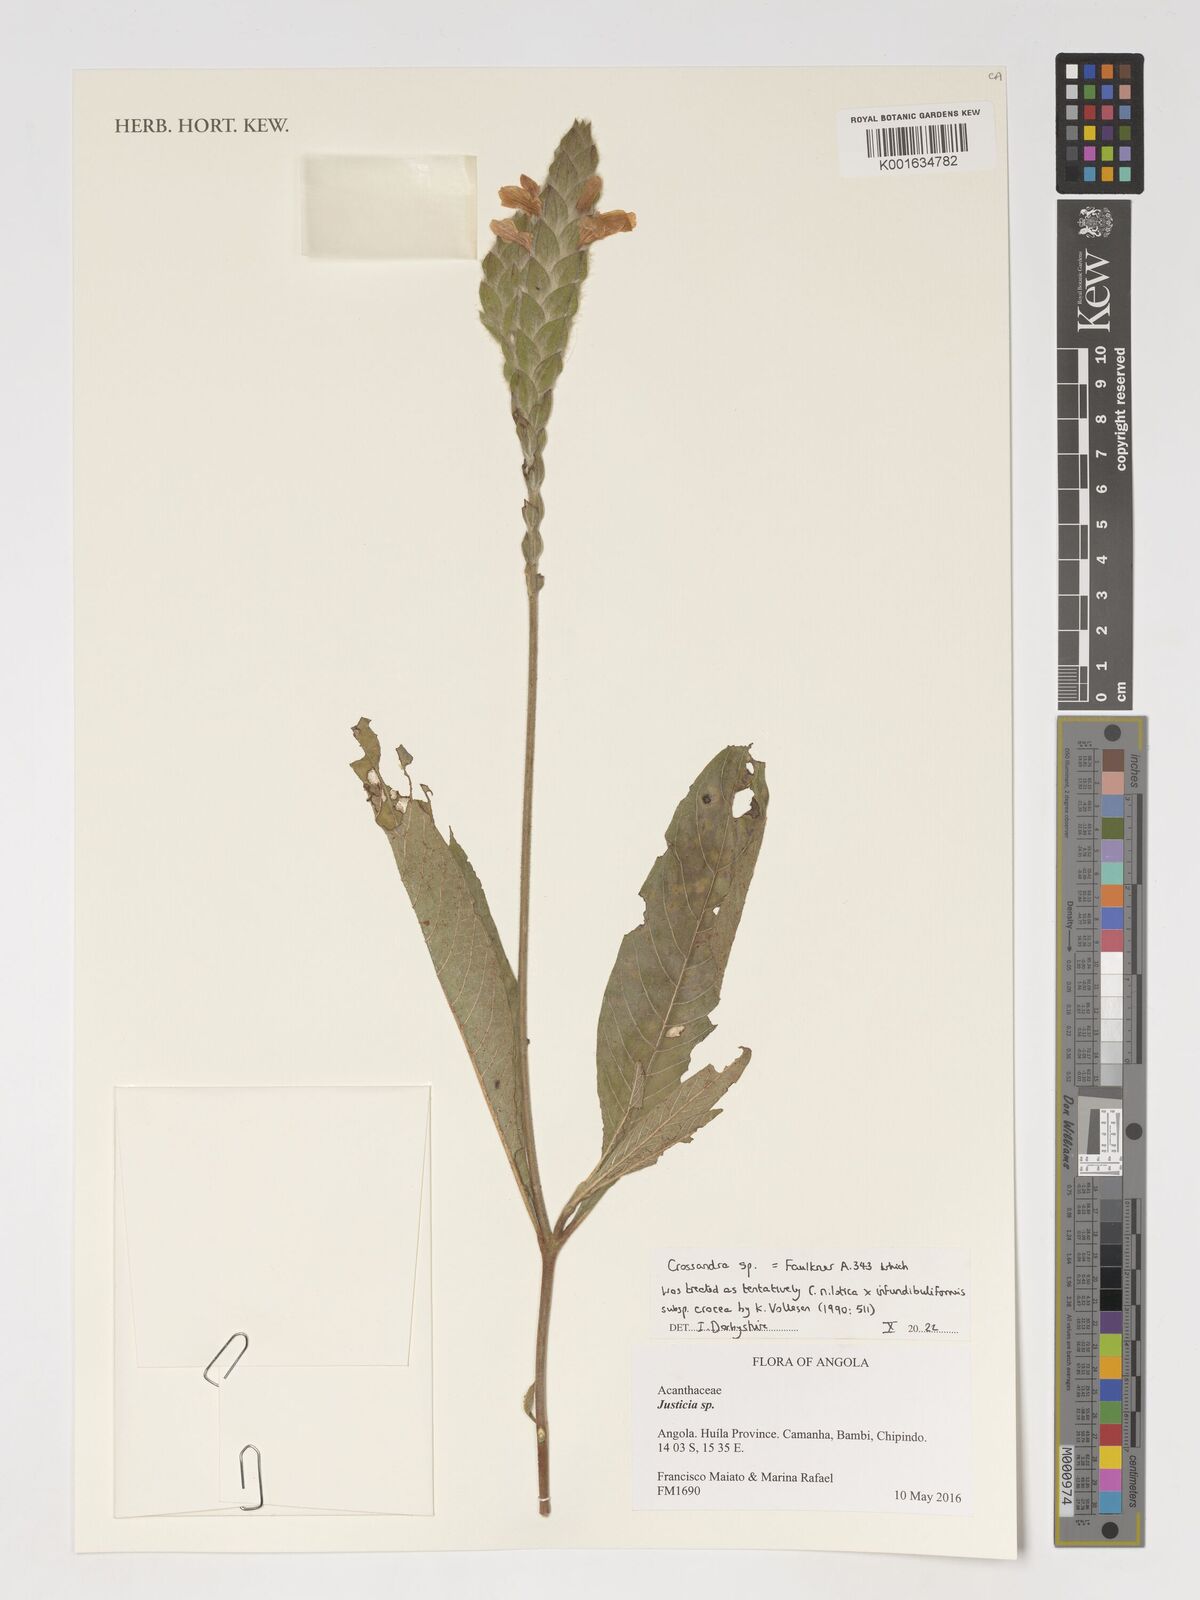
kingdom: Plantae
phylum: Tracheophyta
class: Magnoliopsida
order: Lamiales
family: Acanthaceae
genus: Crossandra
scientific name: Crossandra
